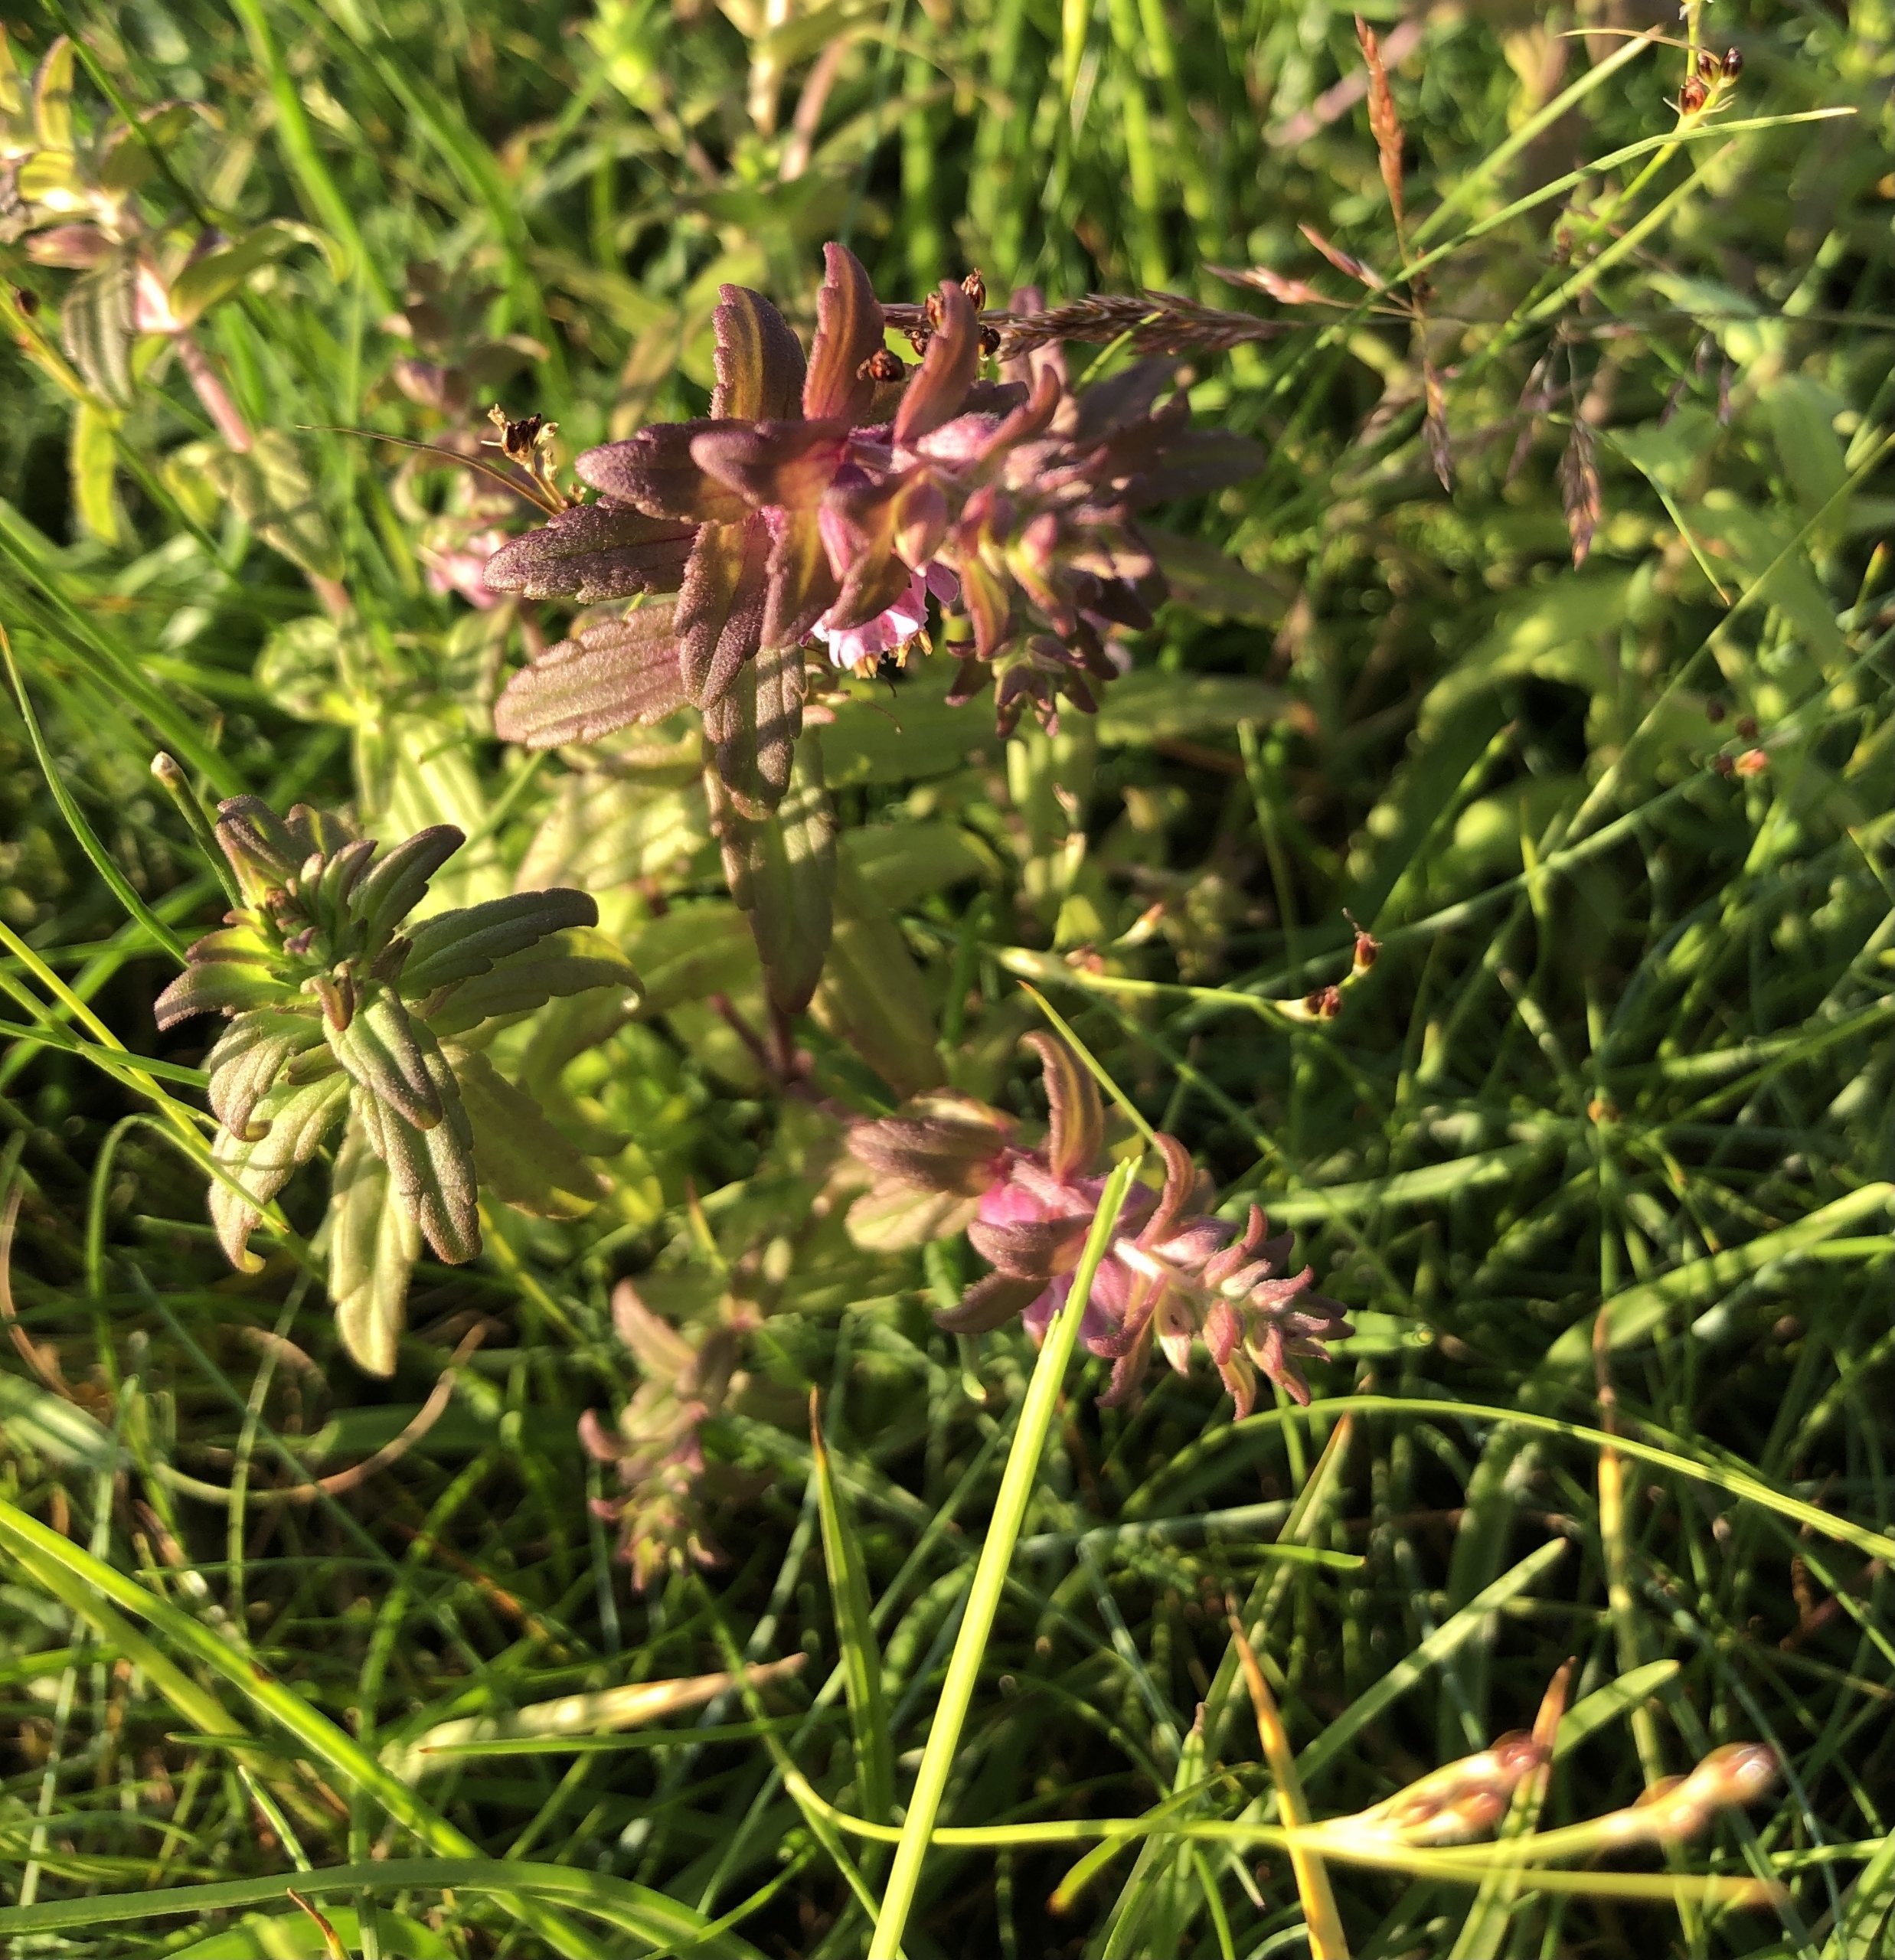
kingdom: Plantae
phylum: Tracheophyta
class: Magnoliopsida
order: Lamiales
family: Orobanchaceae
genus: Odontites
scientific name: Odontites
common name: Rødtopslægten
